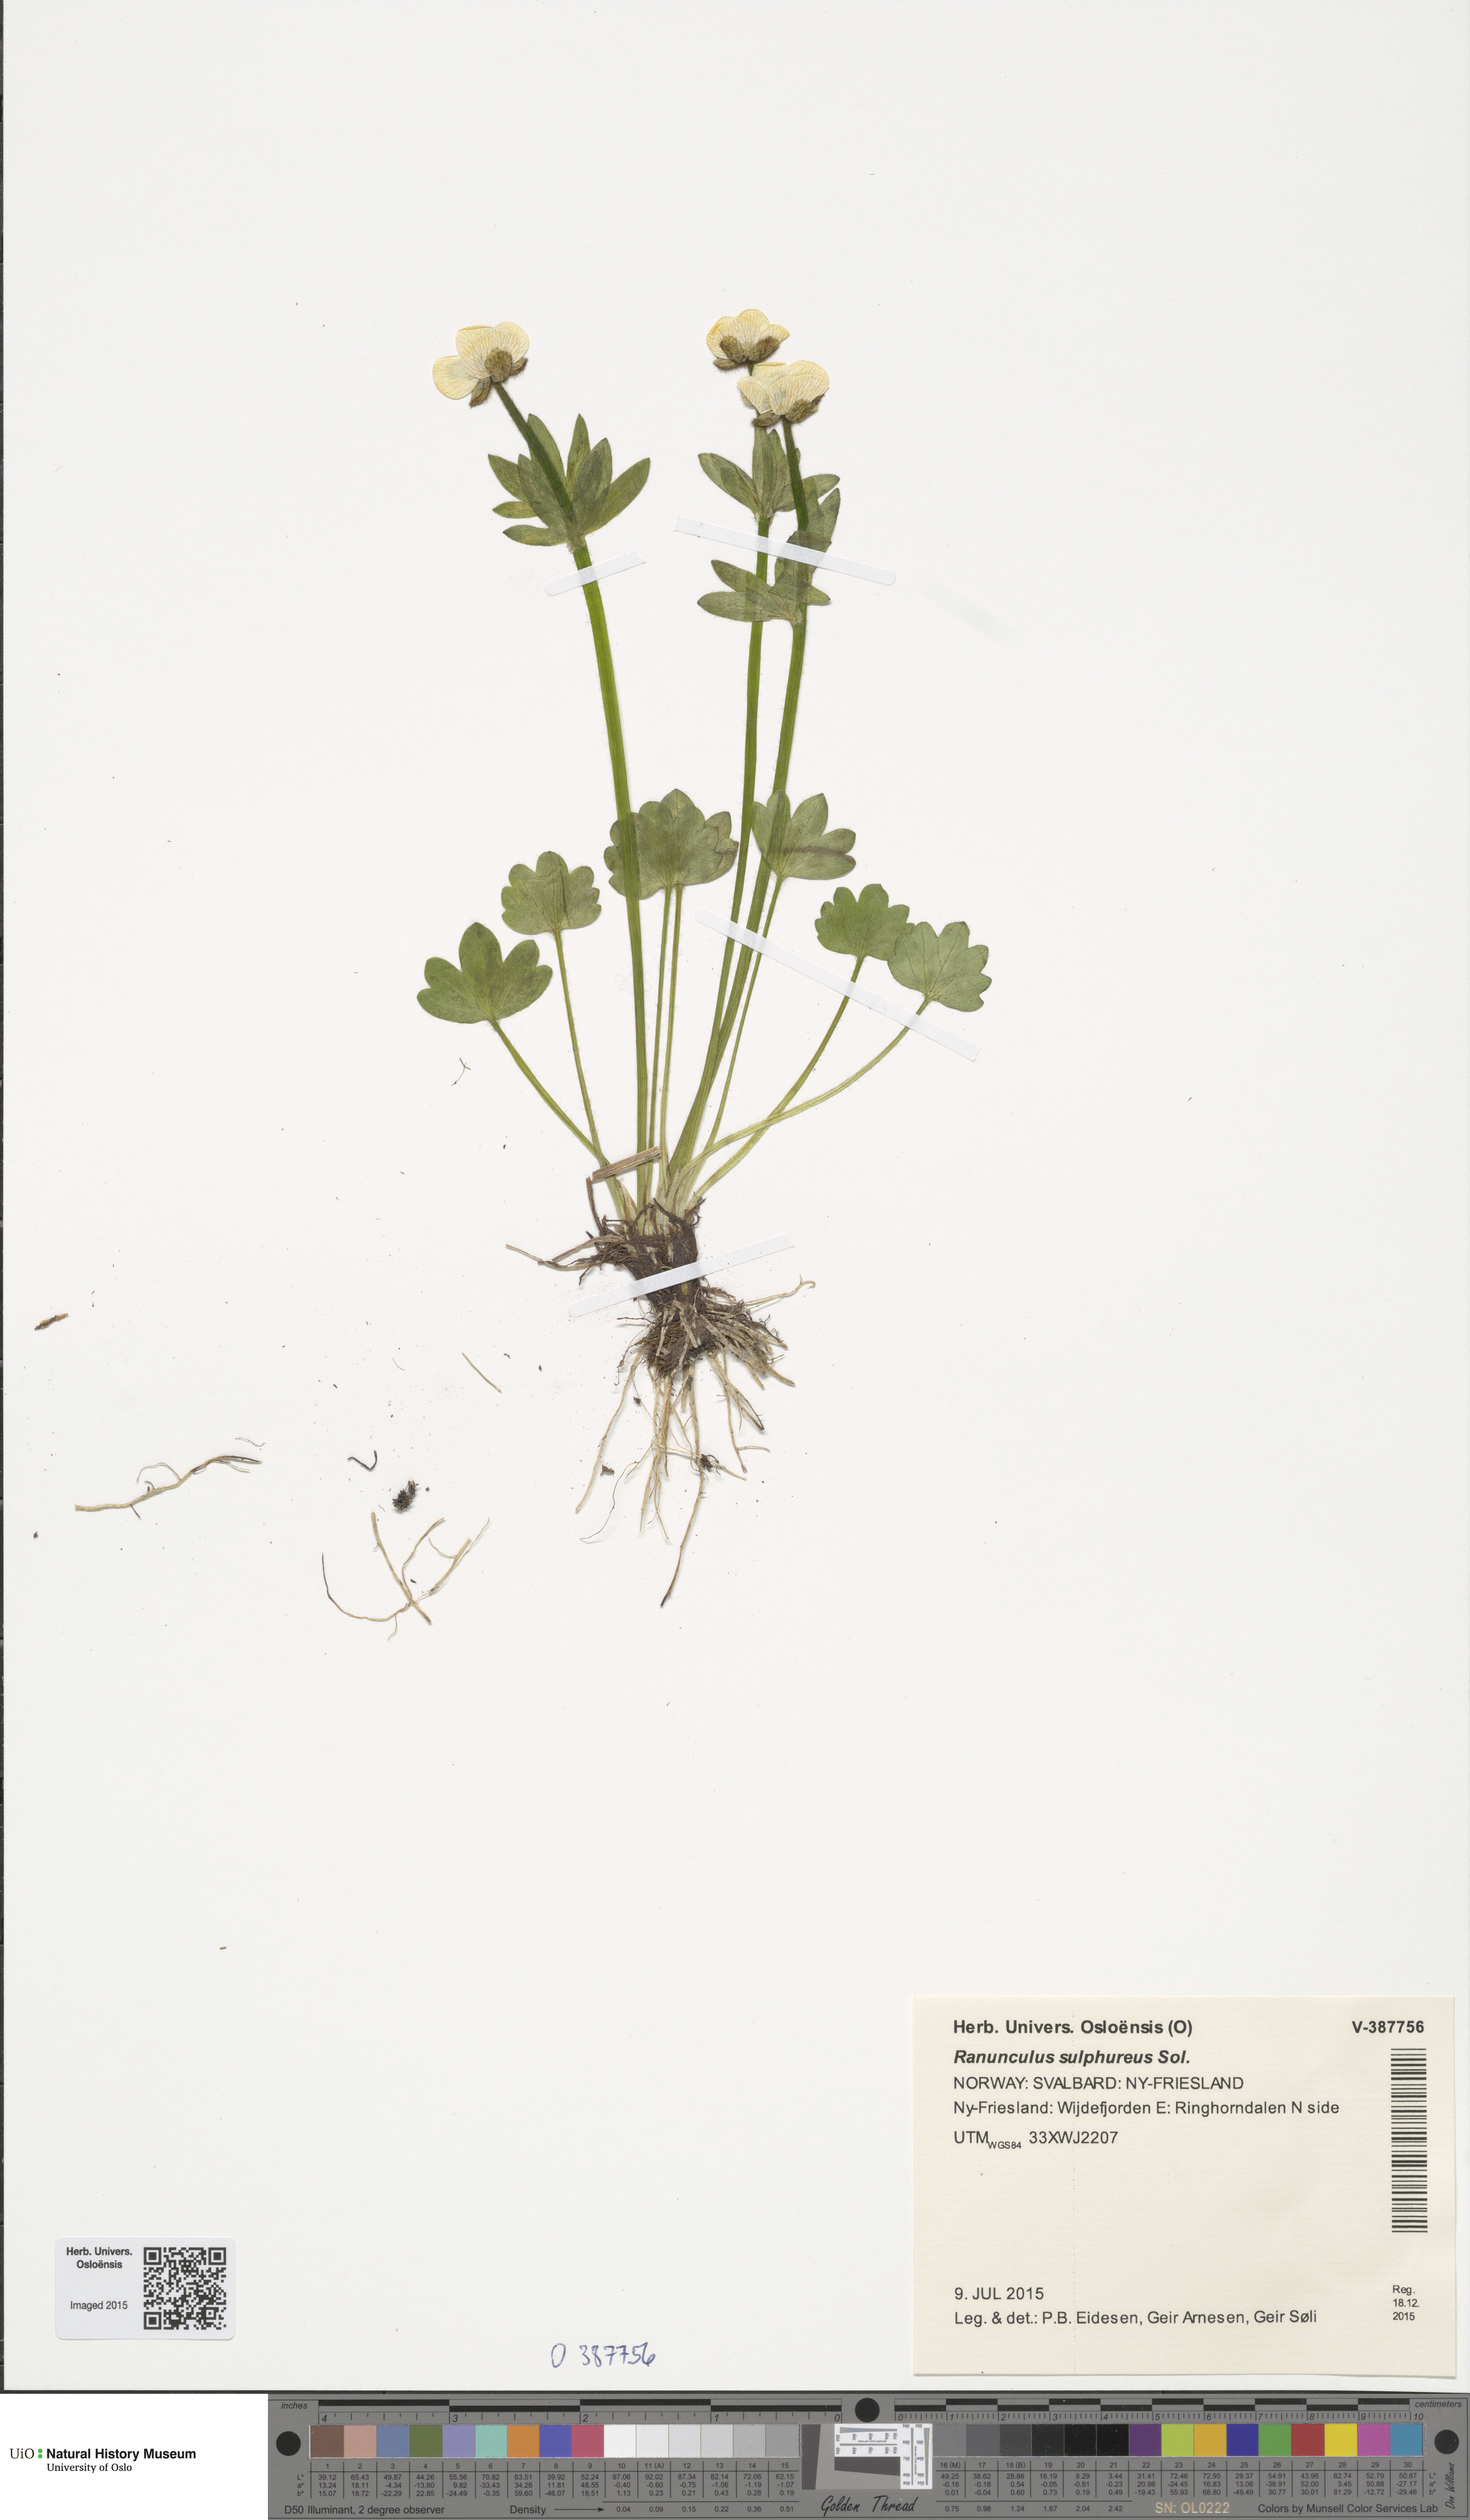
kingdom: Plantae
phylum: Tracheophyta
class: Magnoliopsida
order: Ranunculales
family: Ranunculaceae
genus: Ranunculus
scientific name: Ranunculus sulphureus
